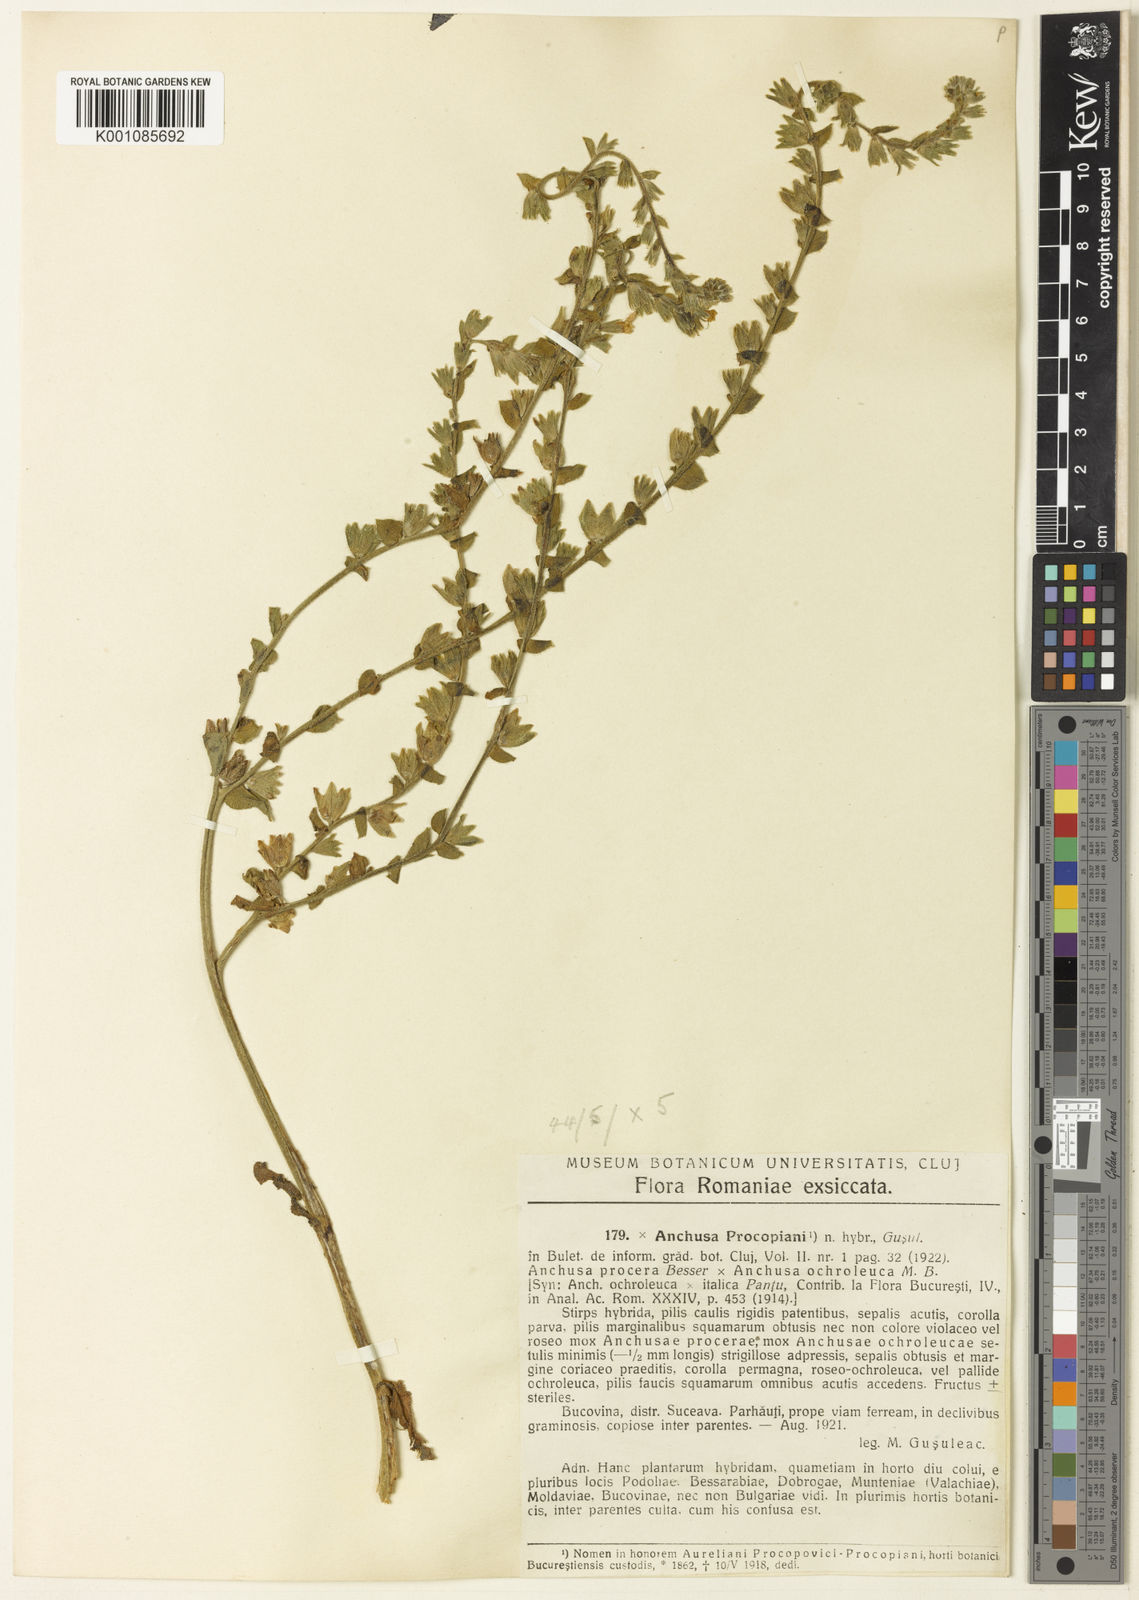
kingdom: Plantae
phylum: Tracheophyta
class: Magnoliopsida
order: Boraginales
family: Boraginaceae
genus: Anchusa
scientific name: Anchusa officinalis
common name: Alkanet
